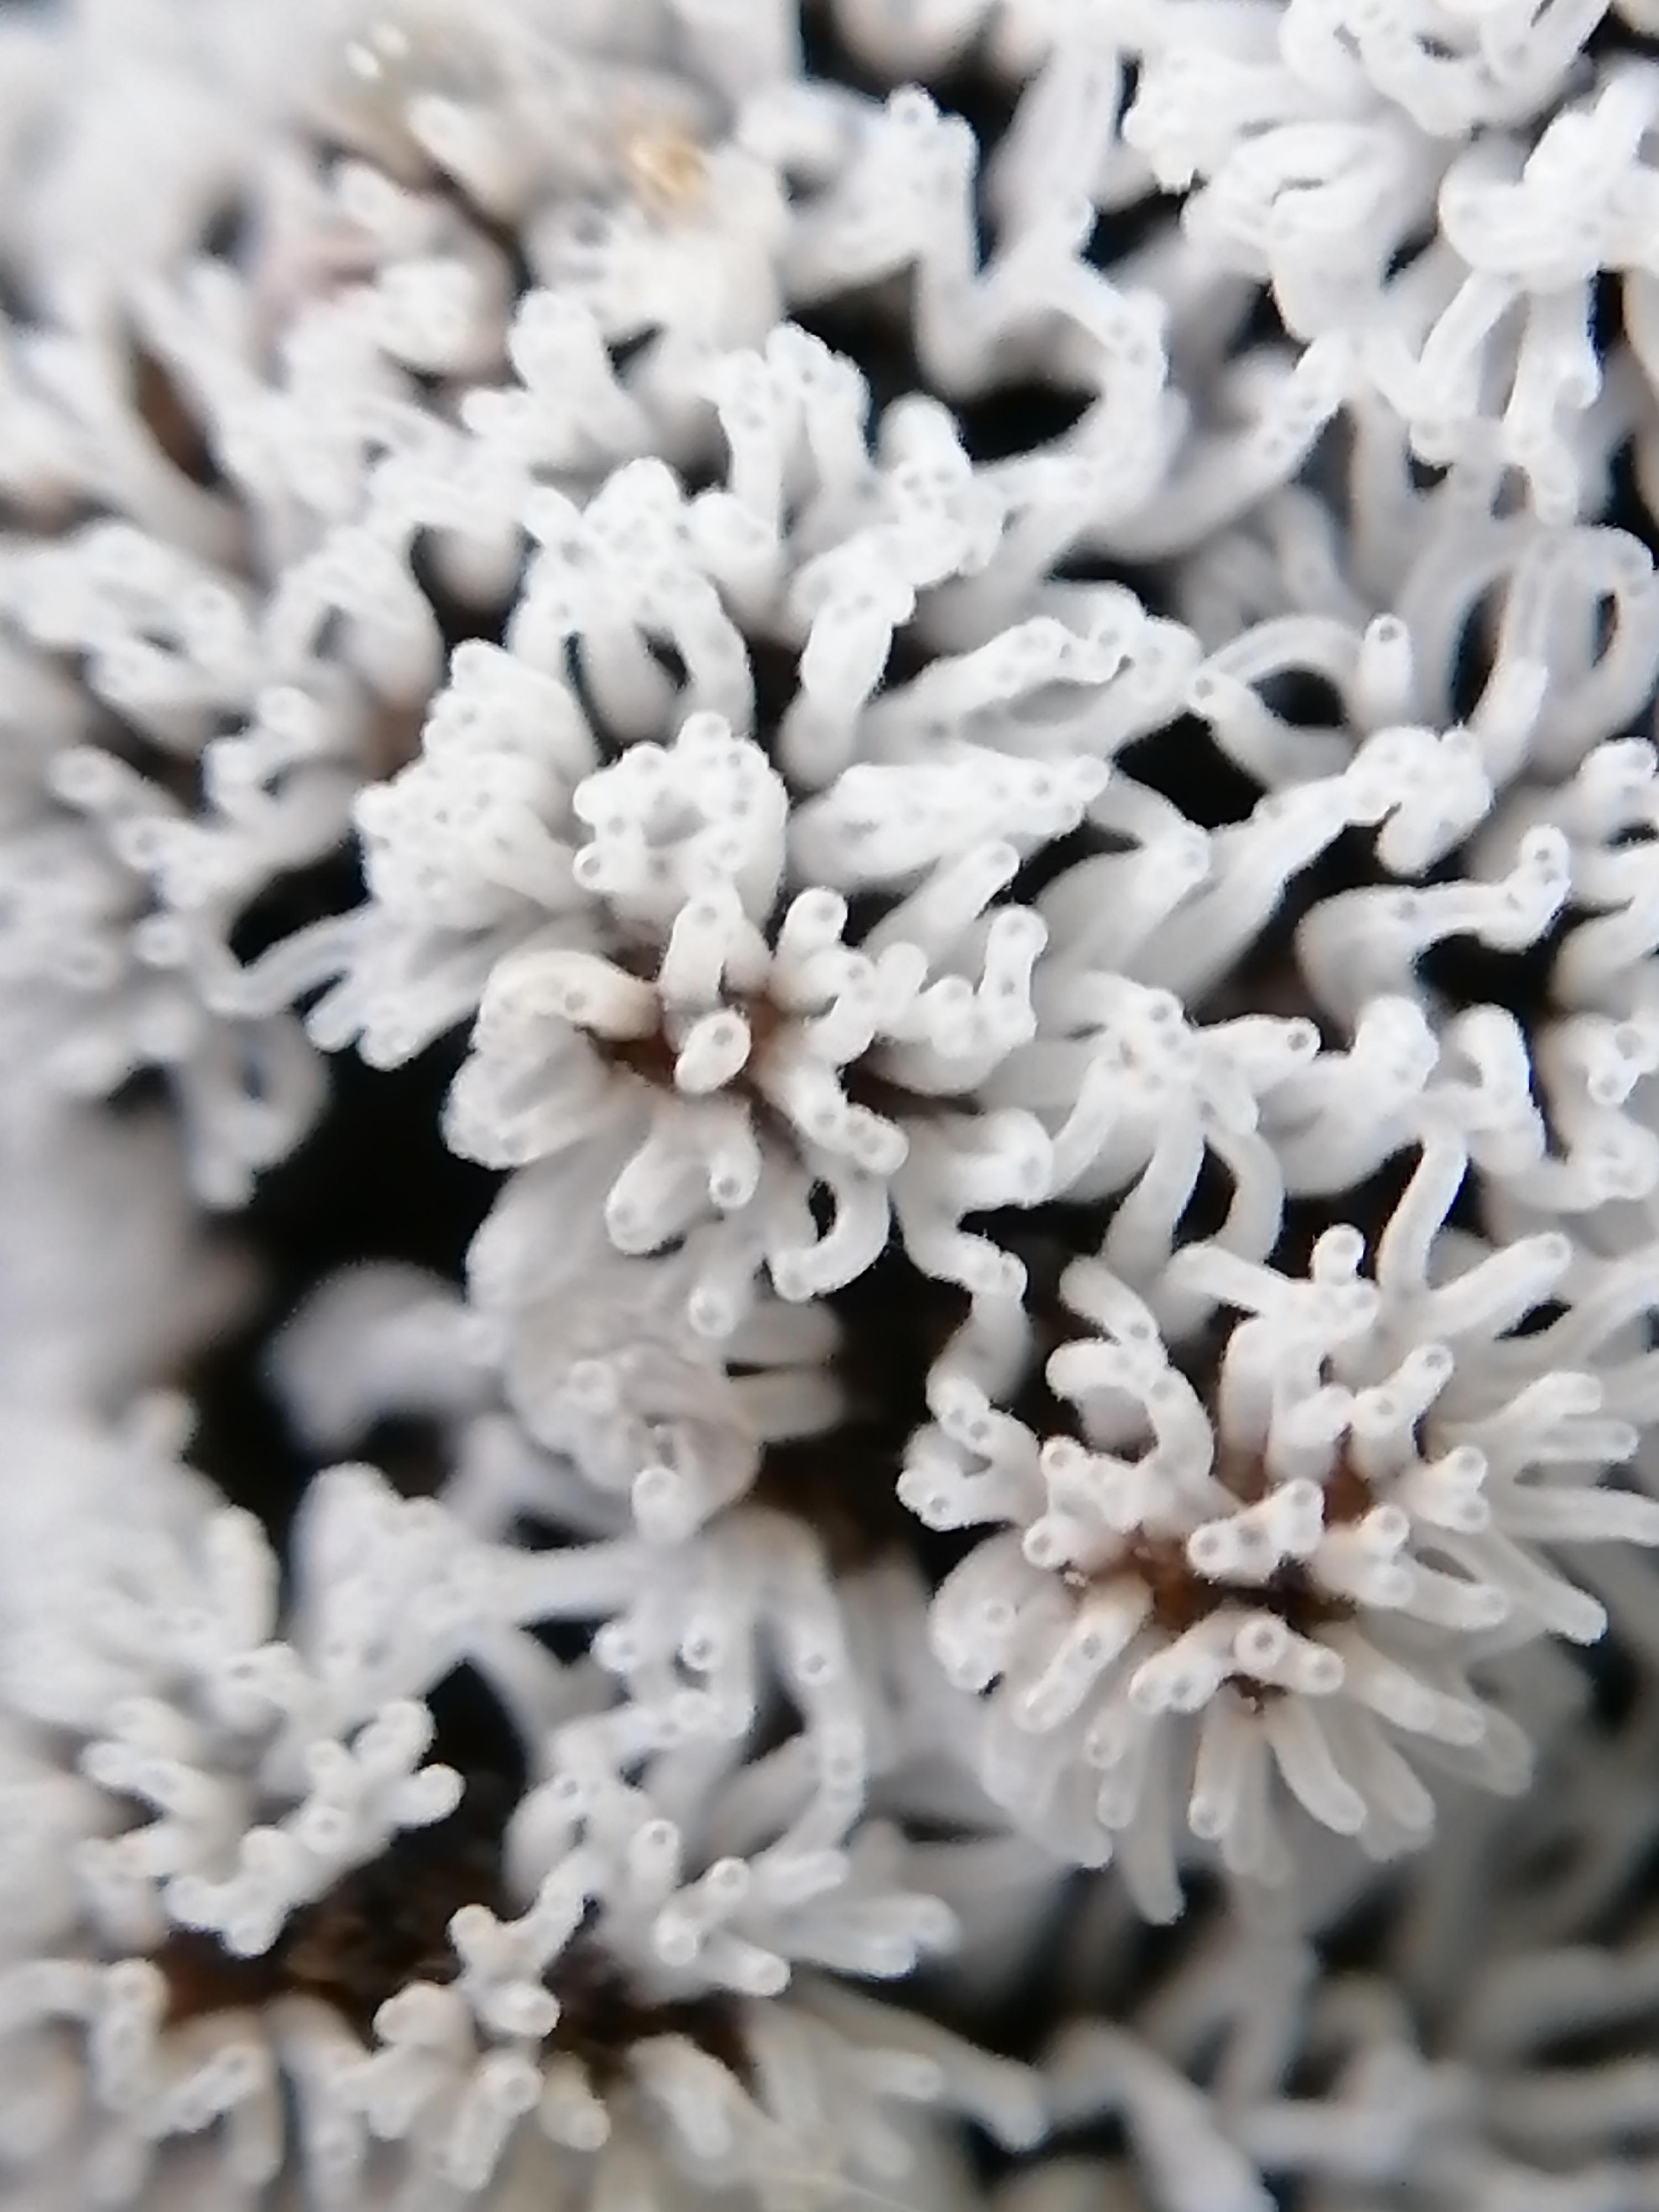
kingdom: Protozoa
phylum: Mycetozoa
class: Protosteliomycetes
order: Ceratiomyxales
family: Ceratiomyxaceae
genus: Ceratiomyxa
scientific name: Ceratiomyxa fruticulosa
